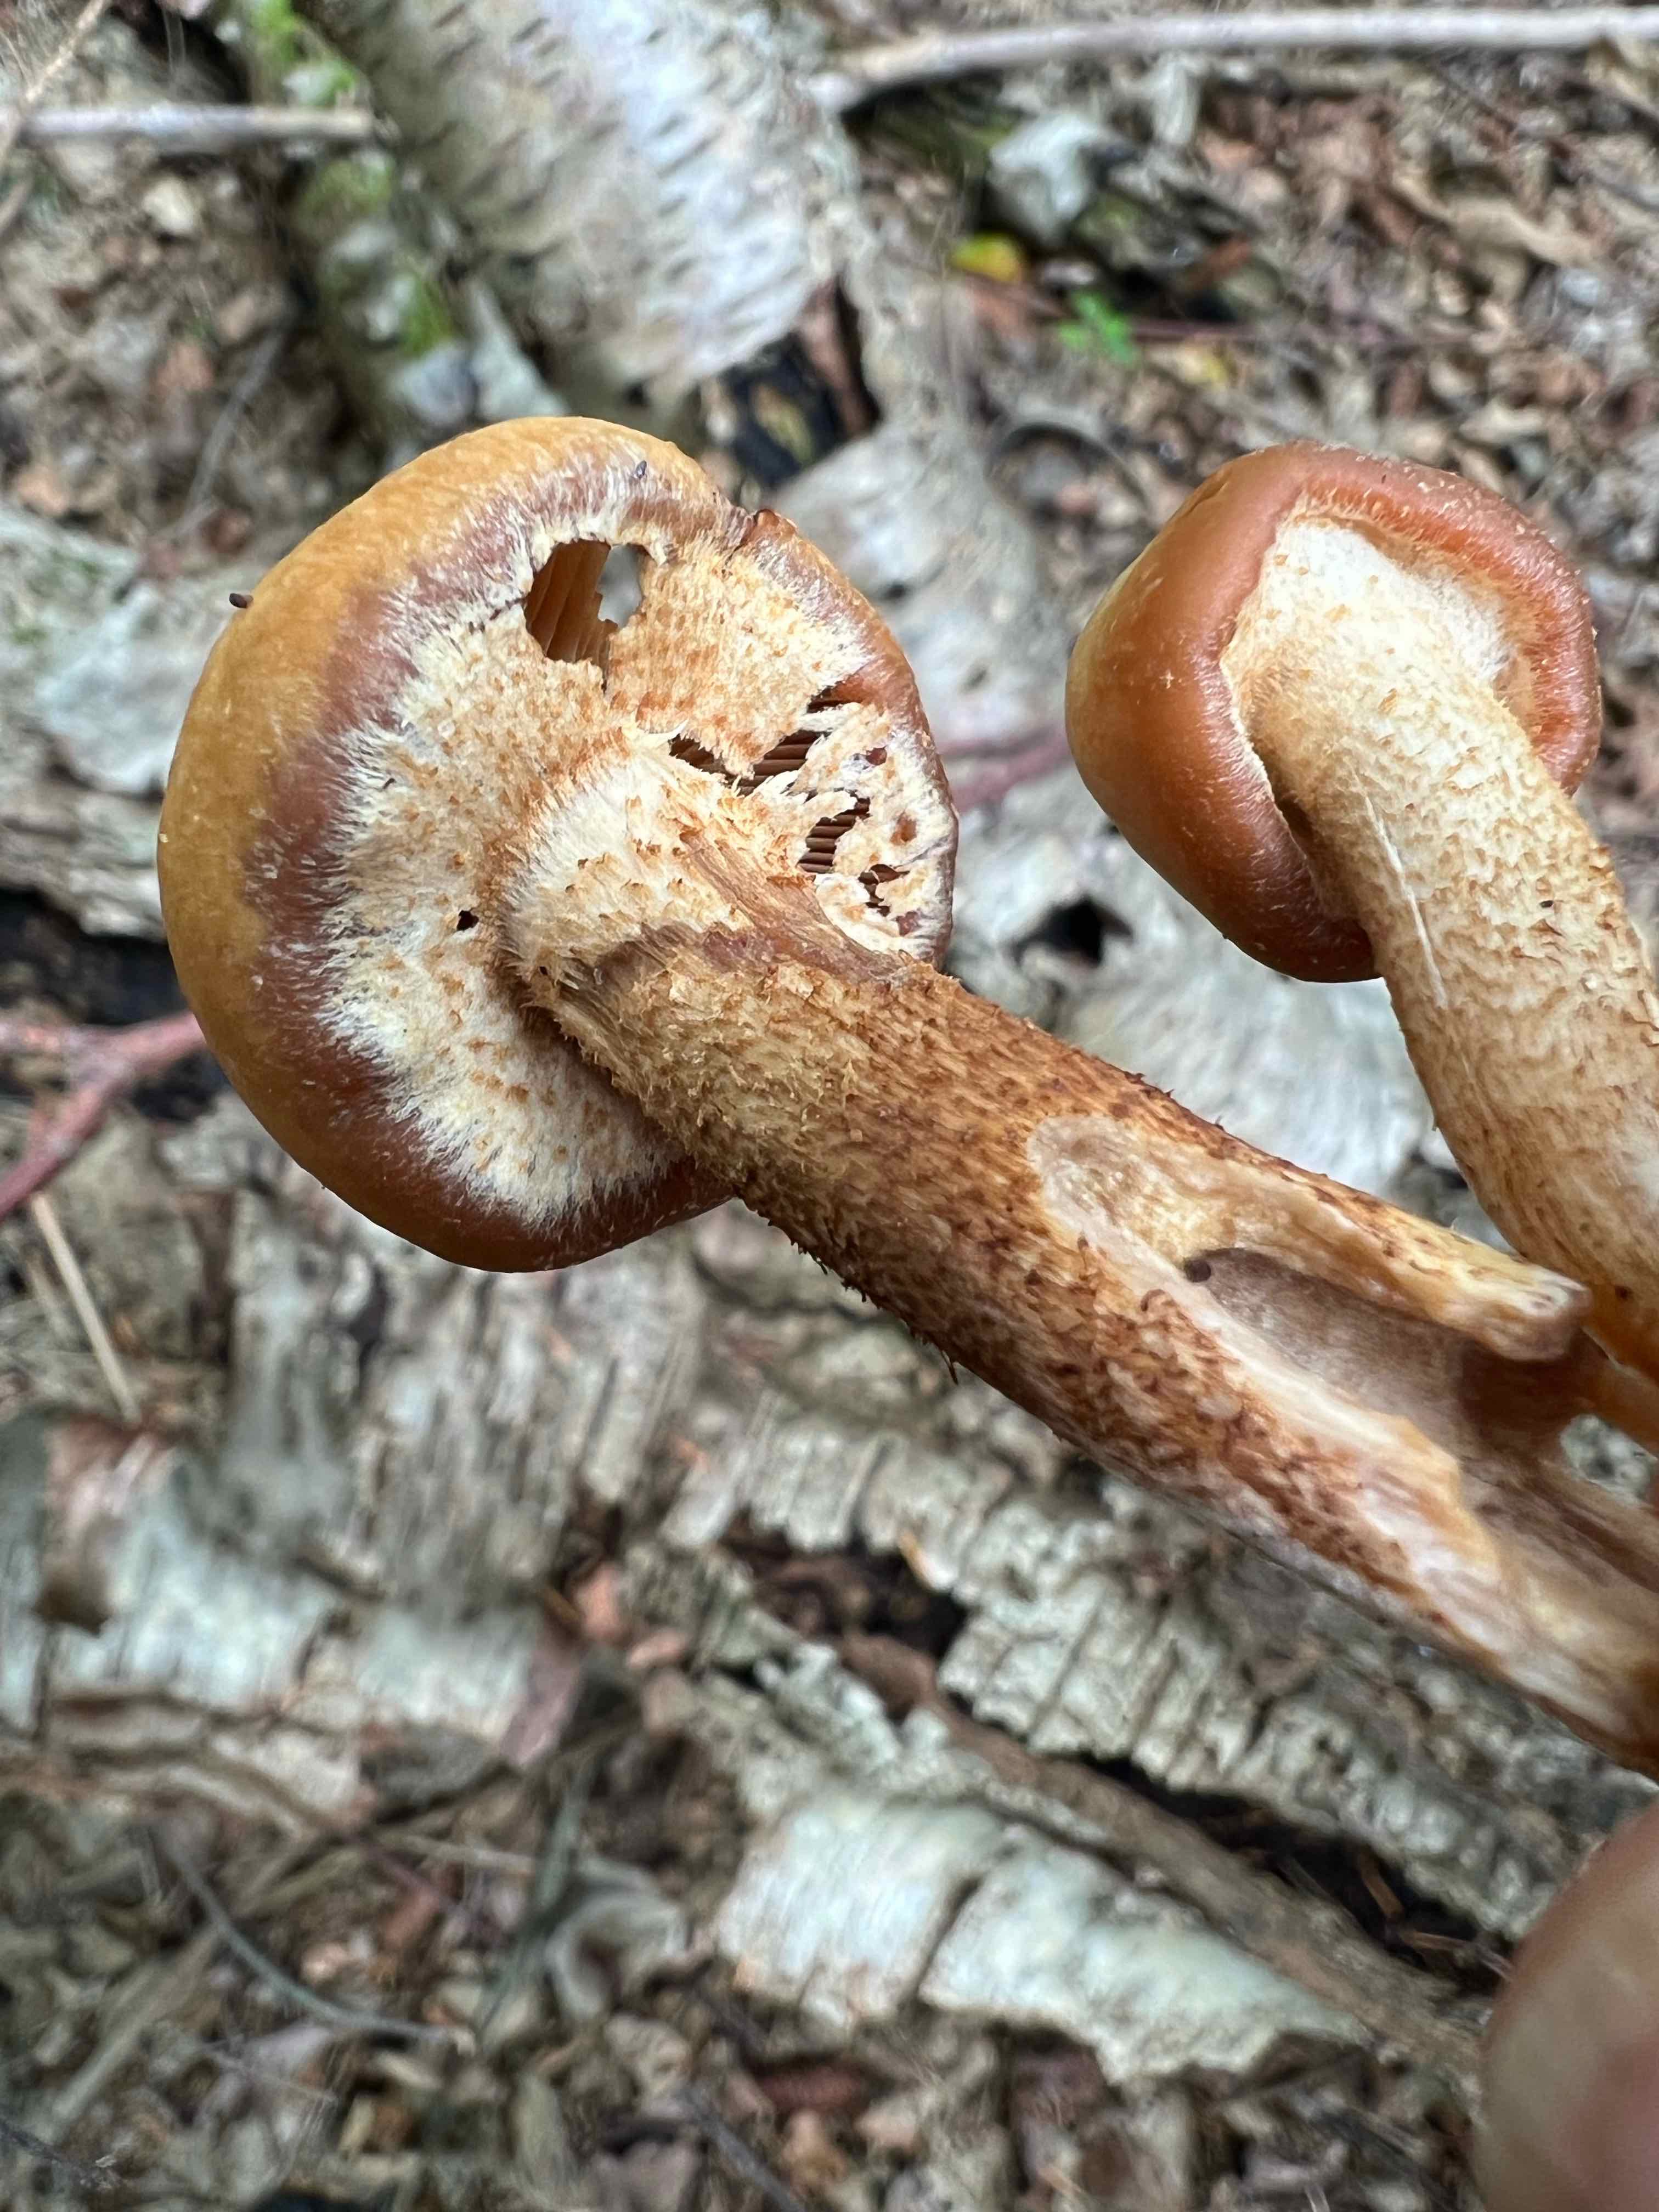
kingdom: Fungi
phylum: Basidiomycota
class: Agaricomycetes
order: Agaricales
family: Strophariaceae
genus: Kuehneromyces
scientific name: Kuehneromyces mutabilis
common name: foranderlig skælhat
